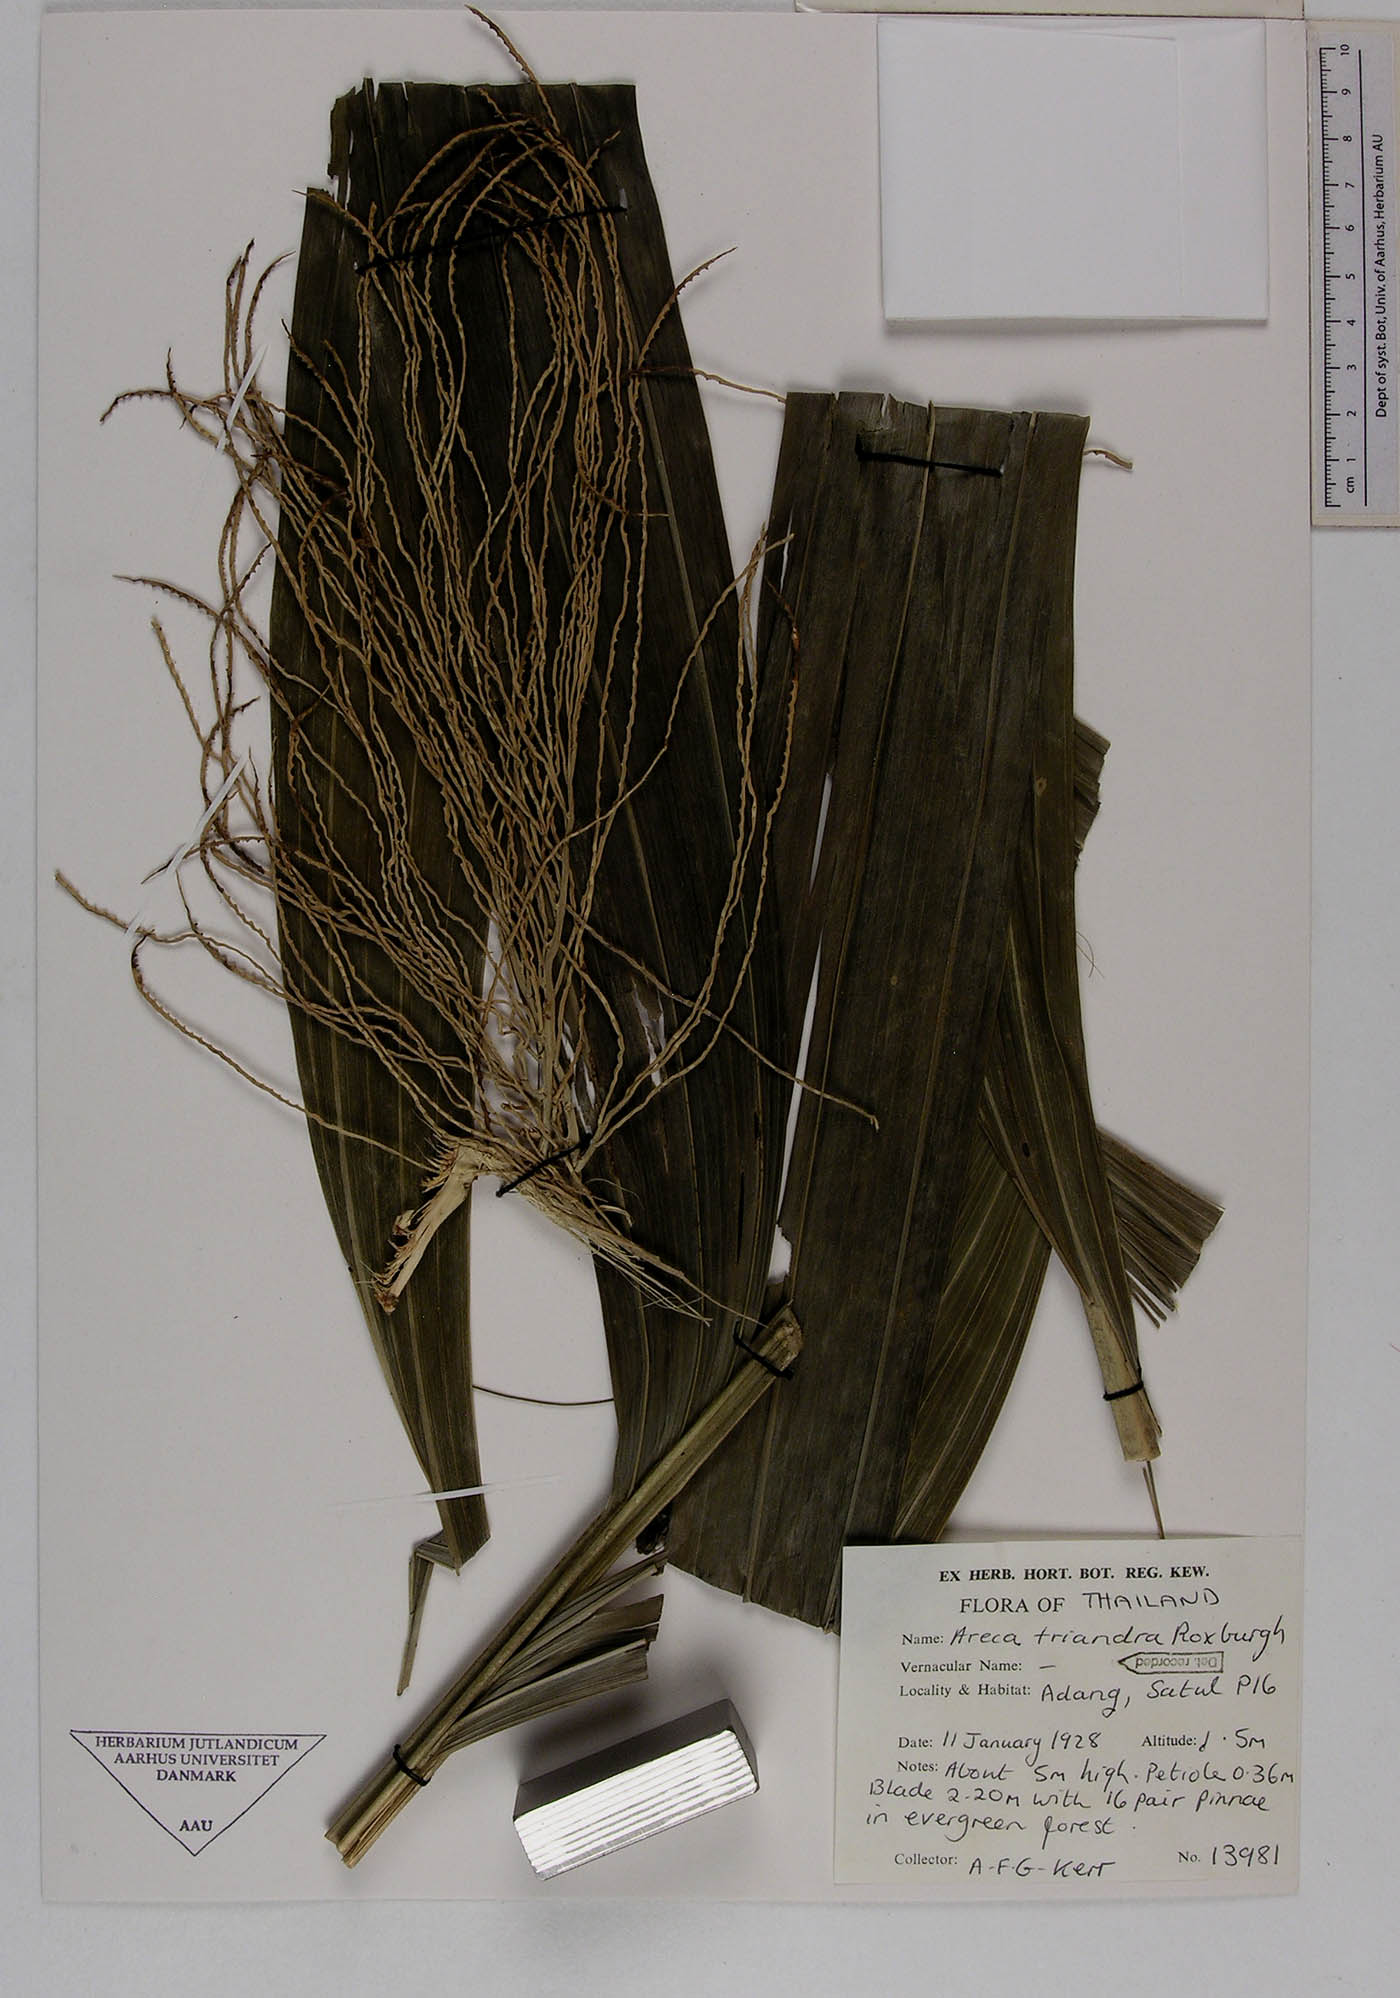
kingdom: Plantae
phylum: Tracheophyta
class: Liliopsida
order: Arecales
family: Arecaceae
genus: Areca
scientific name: Areca triandra
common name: Australian areca palm
